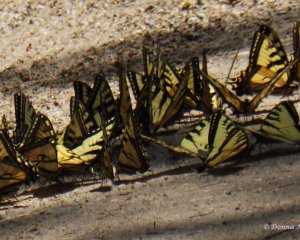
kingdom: Animalia
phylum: Arthropoda
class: Insecta
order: Lepidoptera
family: Papilionidae
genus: Pterourus
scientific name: Pterourus glaucus
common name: Eastern Tiger Swallowtail
